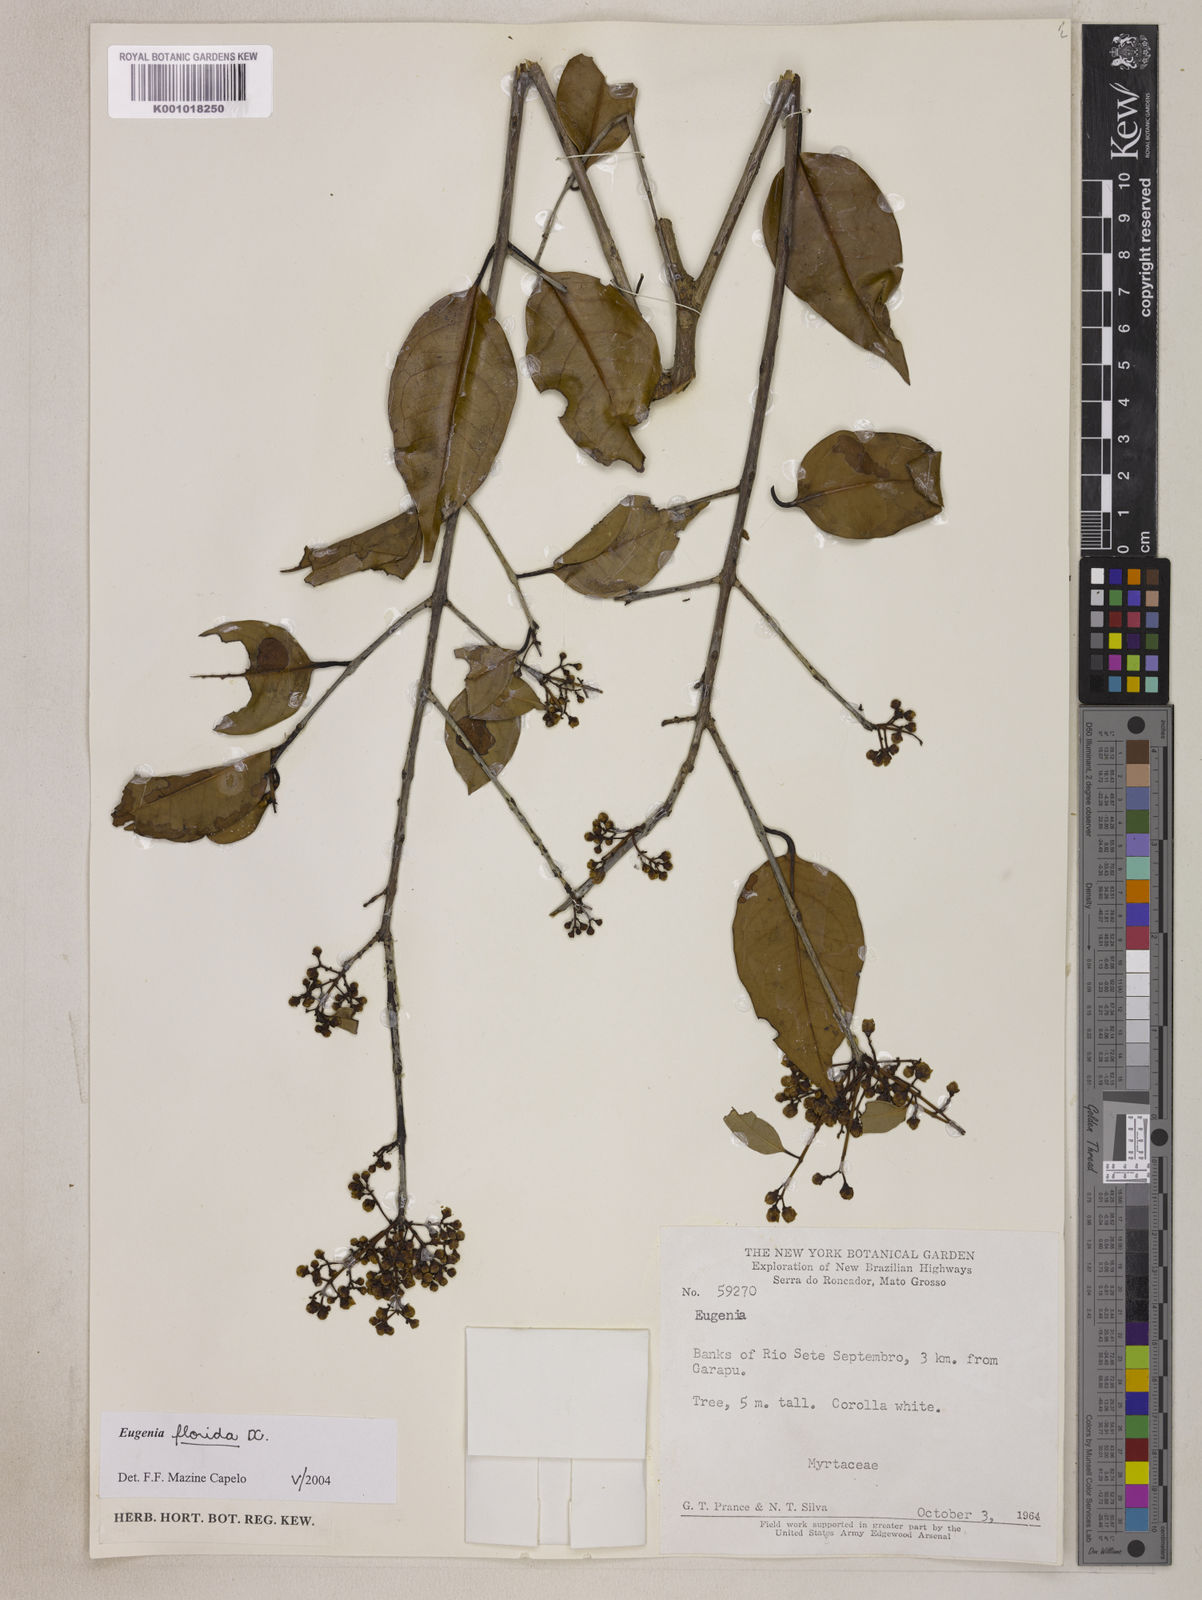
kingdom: Plantae
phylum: Tracheophyta
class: Magnoliopsida
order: Myrtales
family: Myrtaceae
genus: Eugenia
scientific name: Eugenia florida
